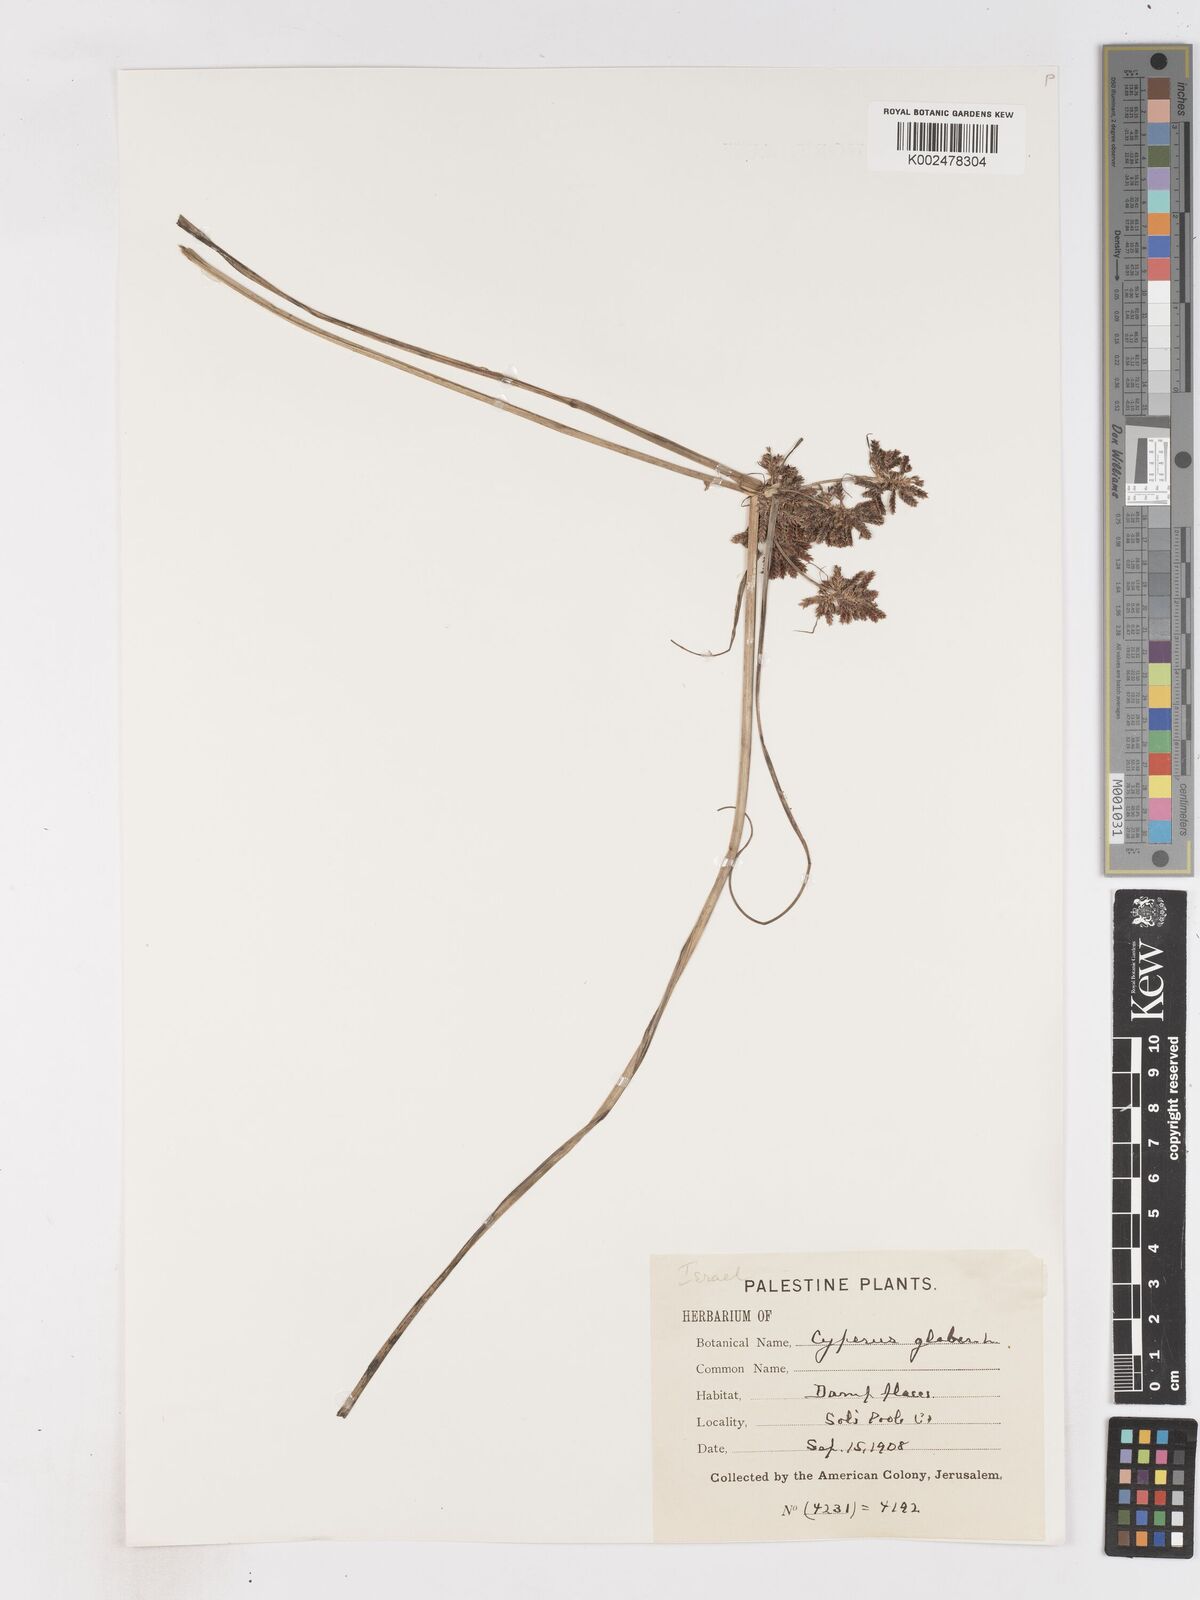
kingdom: Plantae
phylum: Tracheophyta
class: Liliopsida
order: Poales
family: Cyperaceae
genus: Cyperus
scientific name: Cyperus glaber
